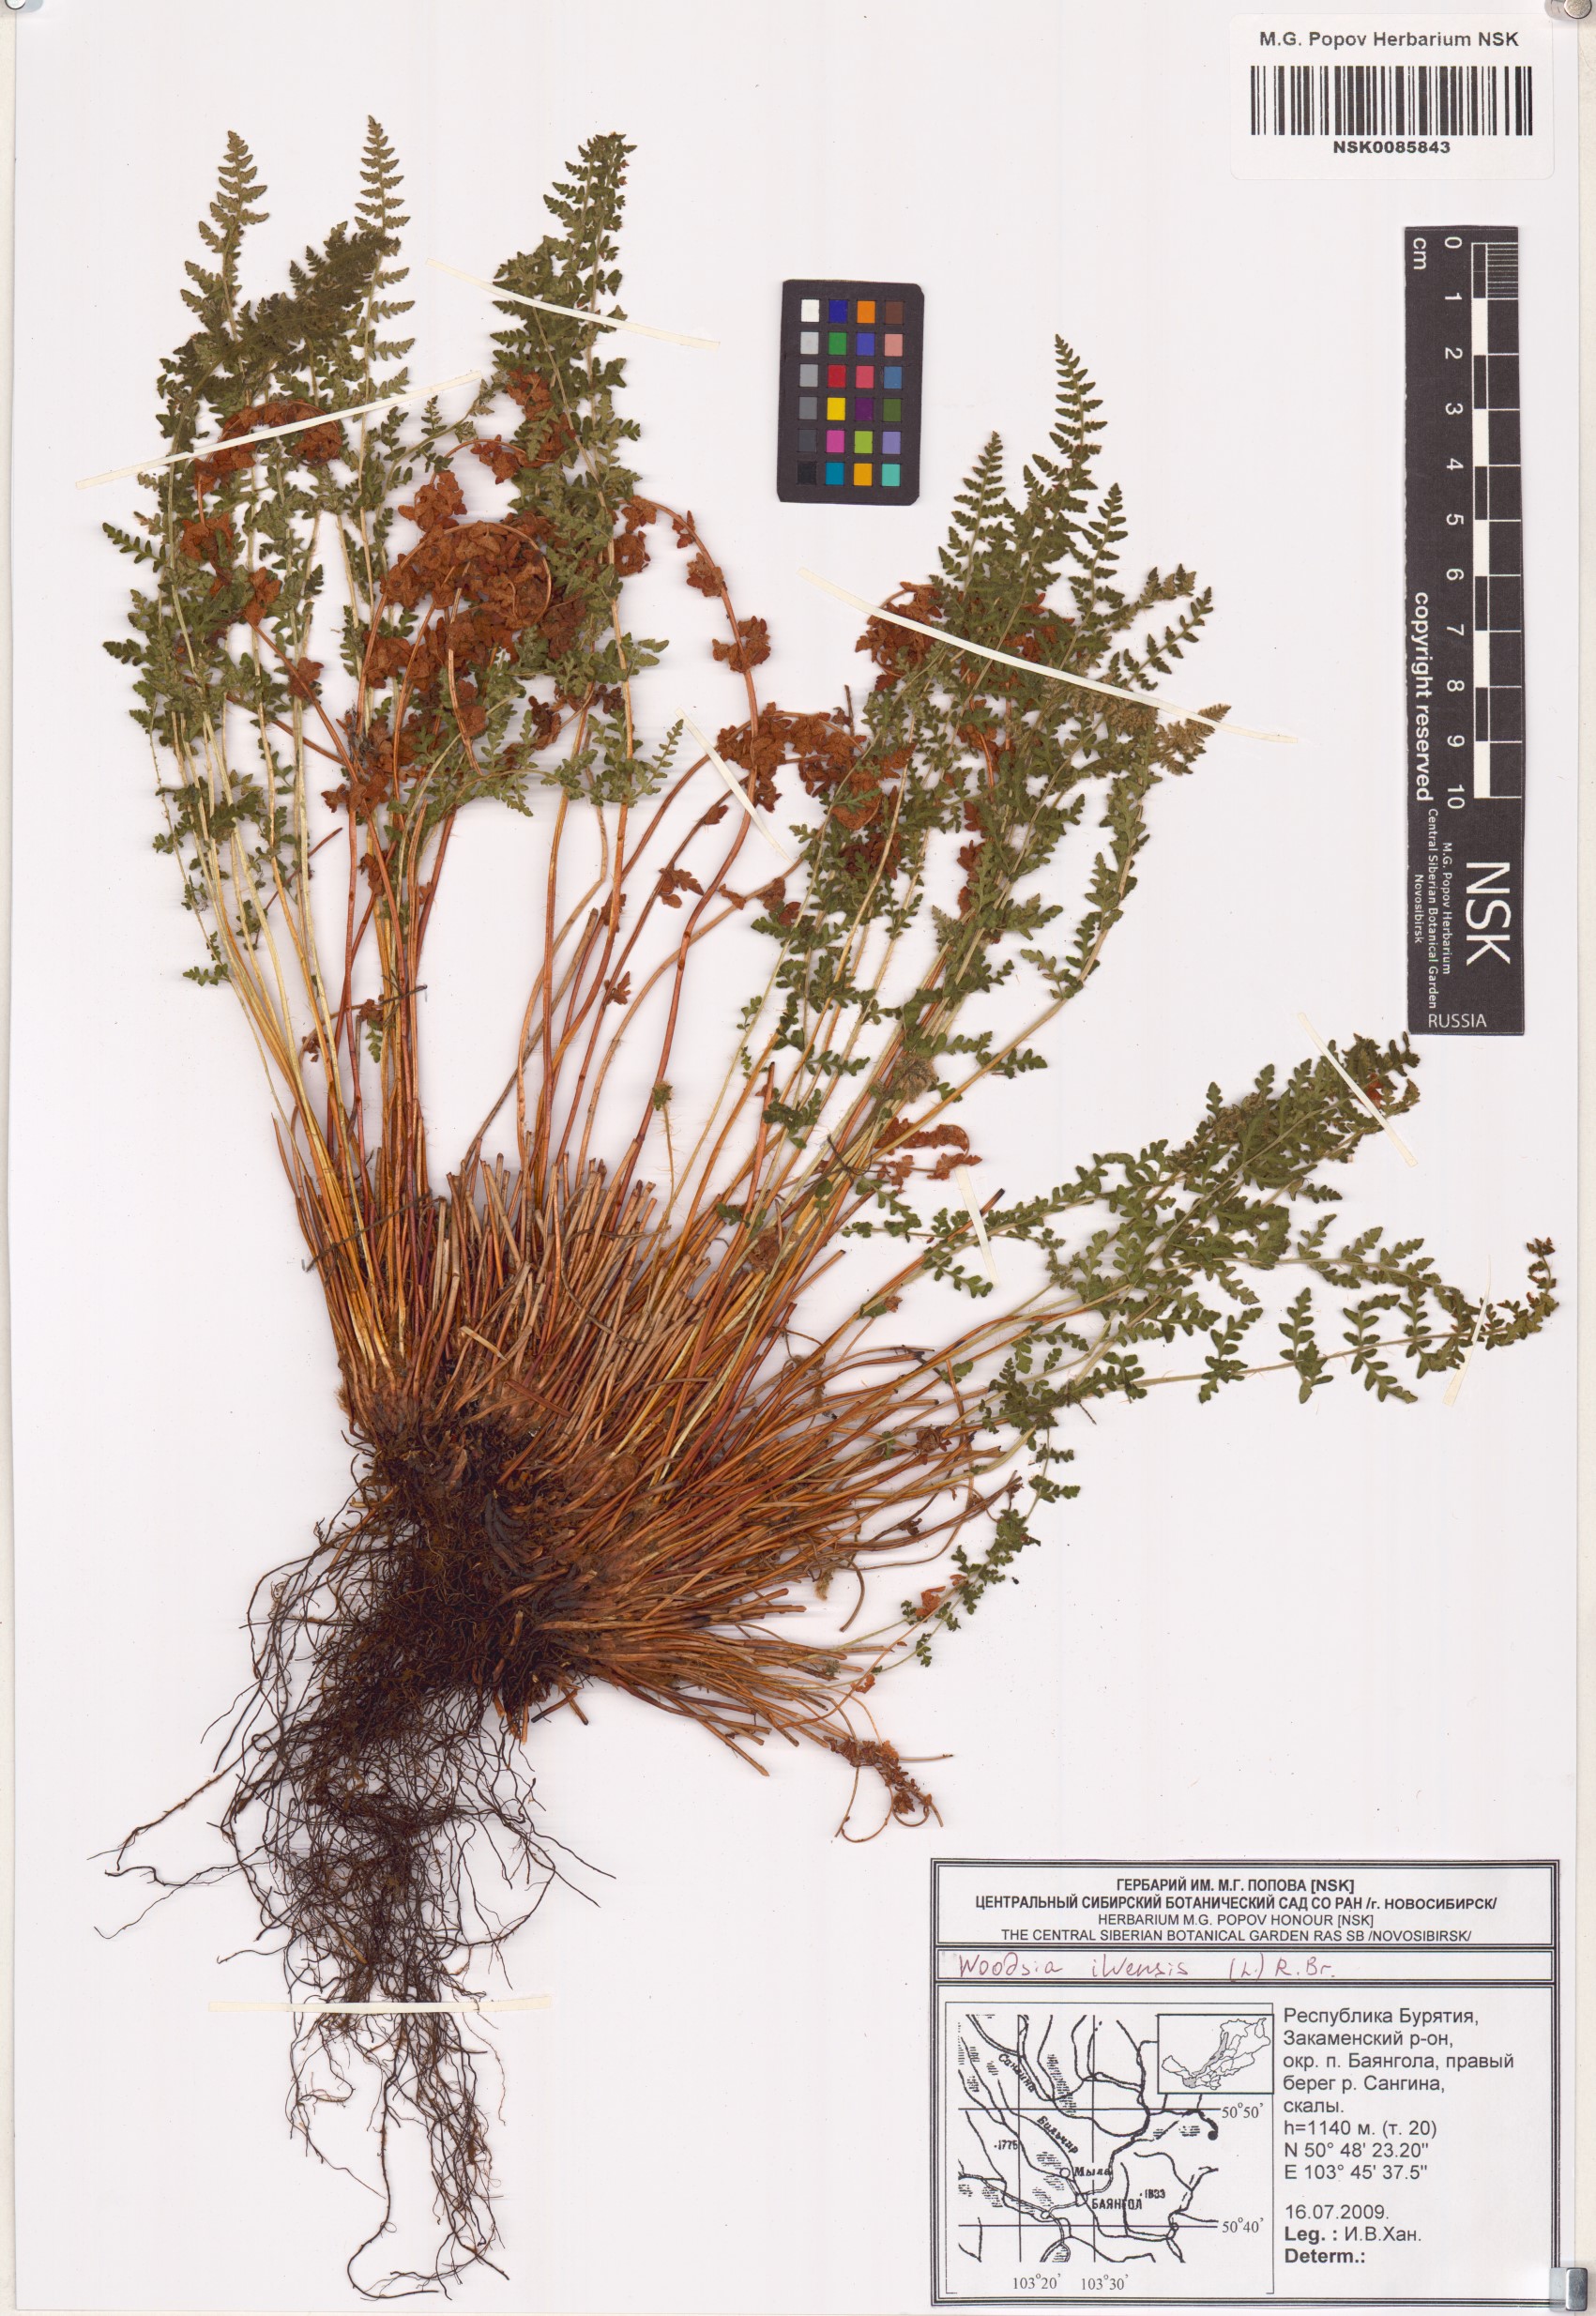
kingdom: Plantae
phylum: Tracheophyta
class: Polypodiopsida
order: Polypodiales
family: Woodsiaceae
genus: Woodsia
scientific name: Woodsia ilvensis
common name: Fragrant woodsia
